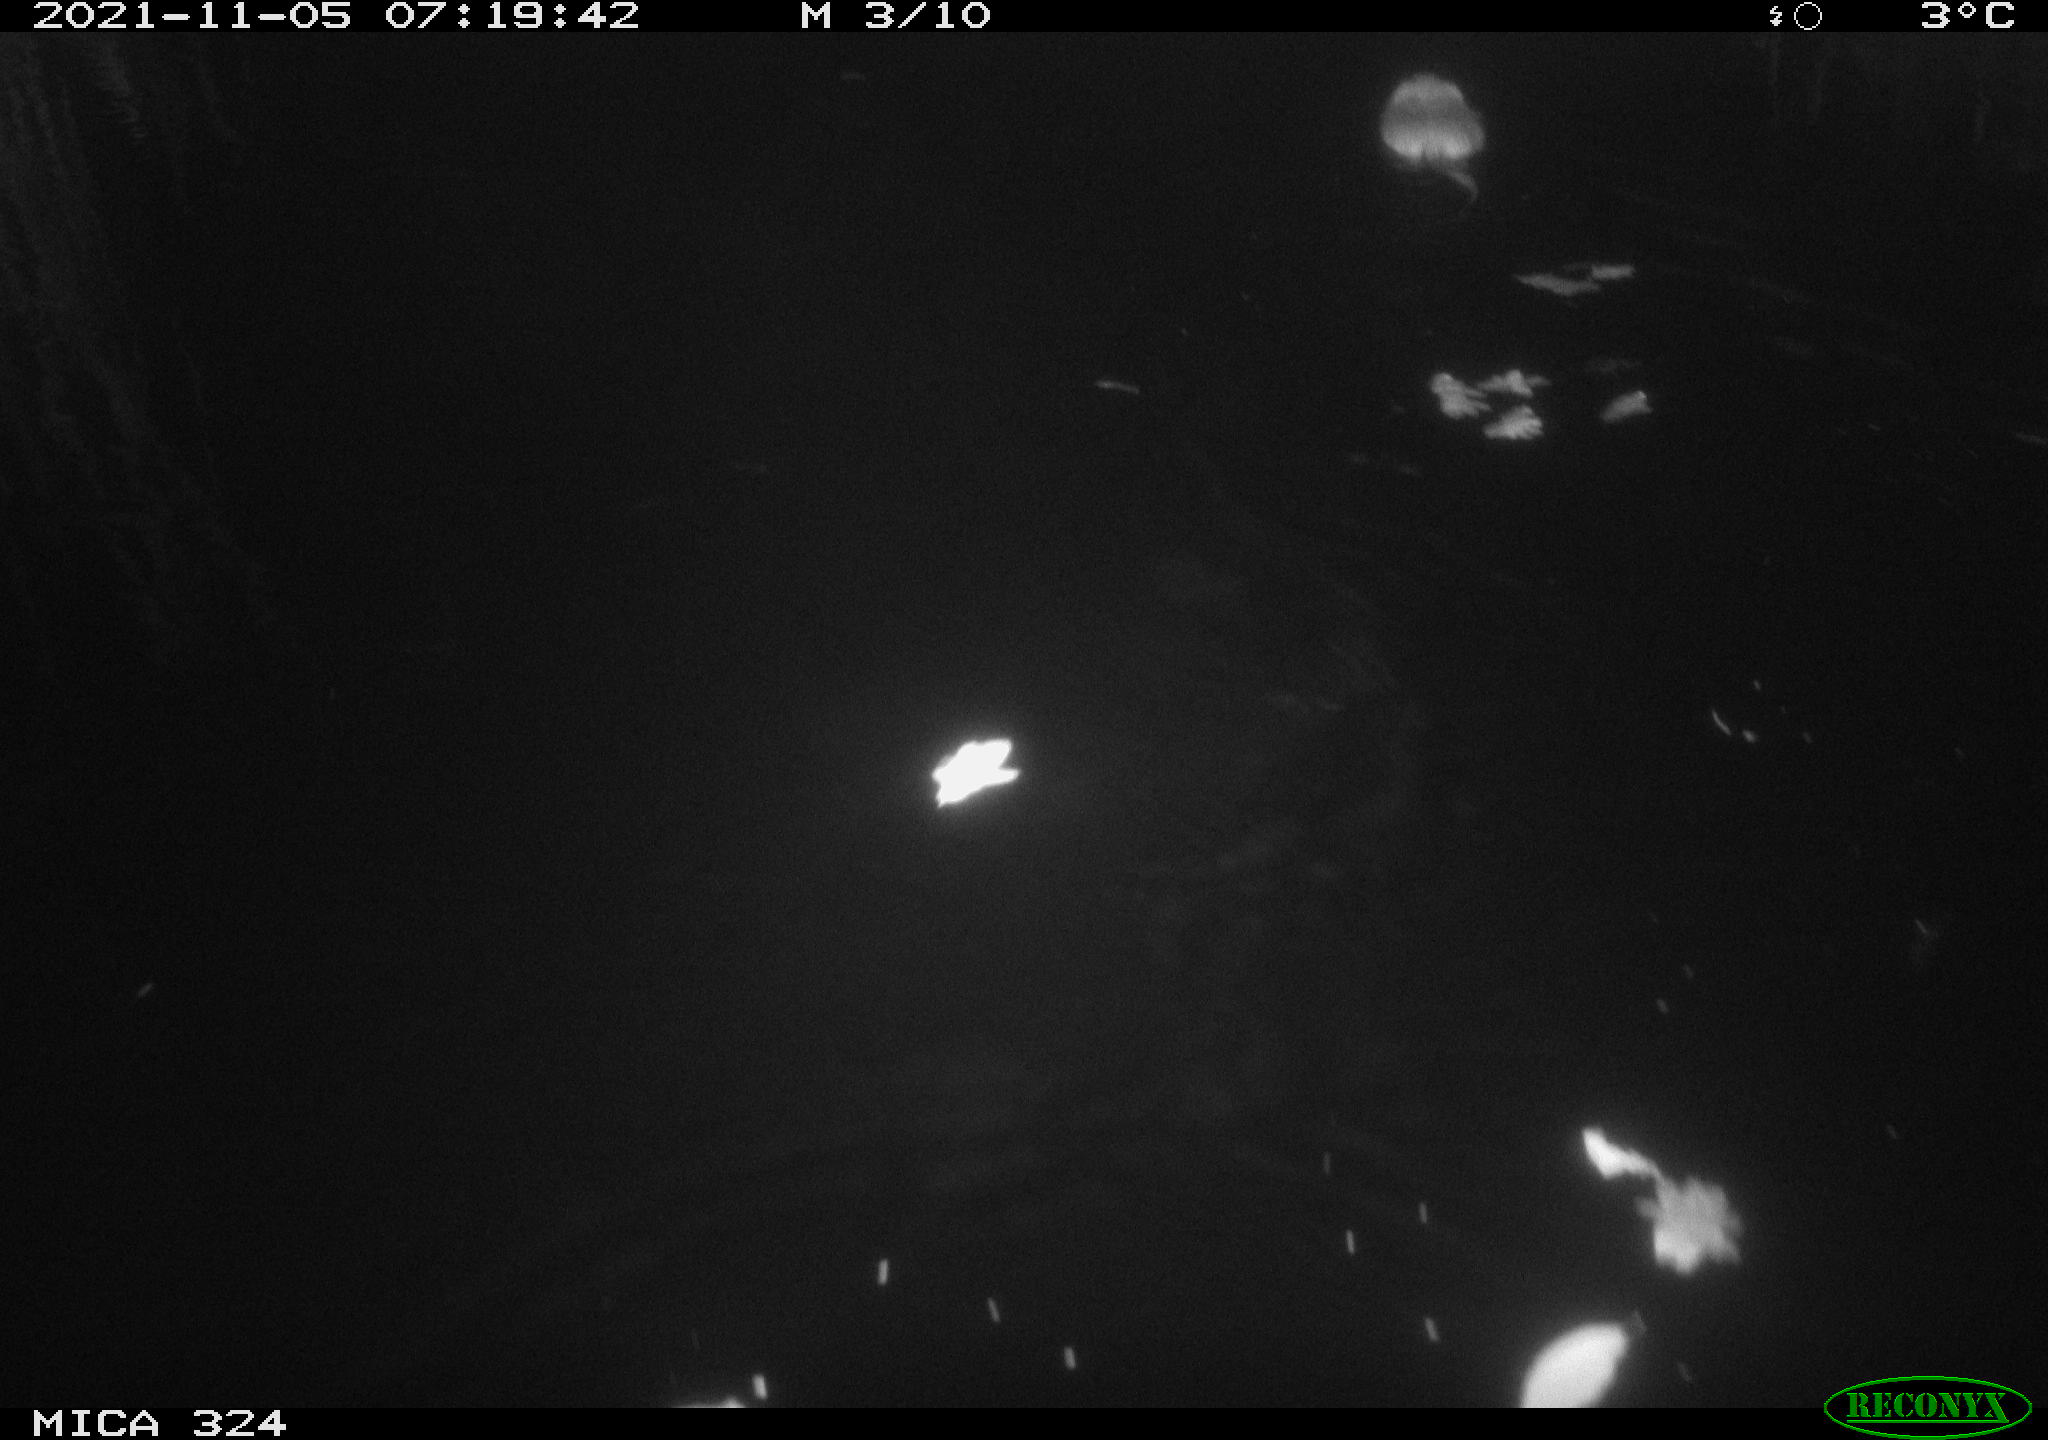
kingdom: Animalia
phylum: Chordata
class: Mammalia
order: Rodentia
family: Cricetidae
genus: Ondatra
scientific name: Ondatra zibethicus
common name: Muskrat
